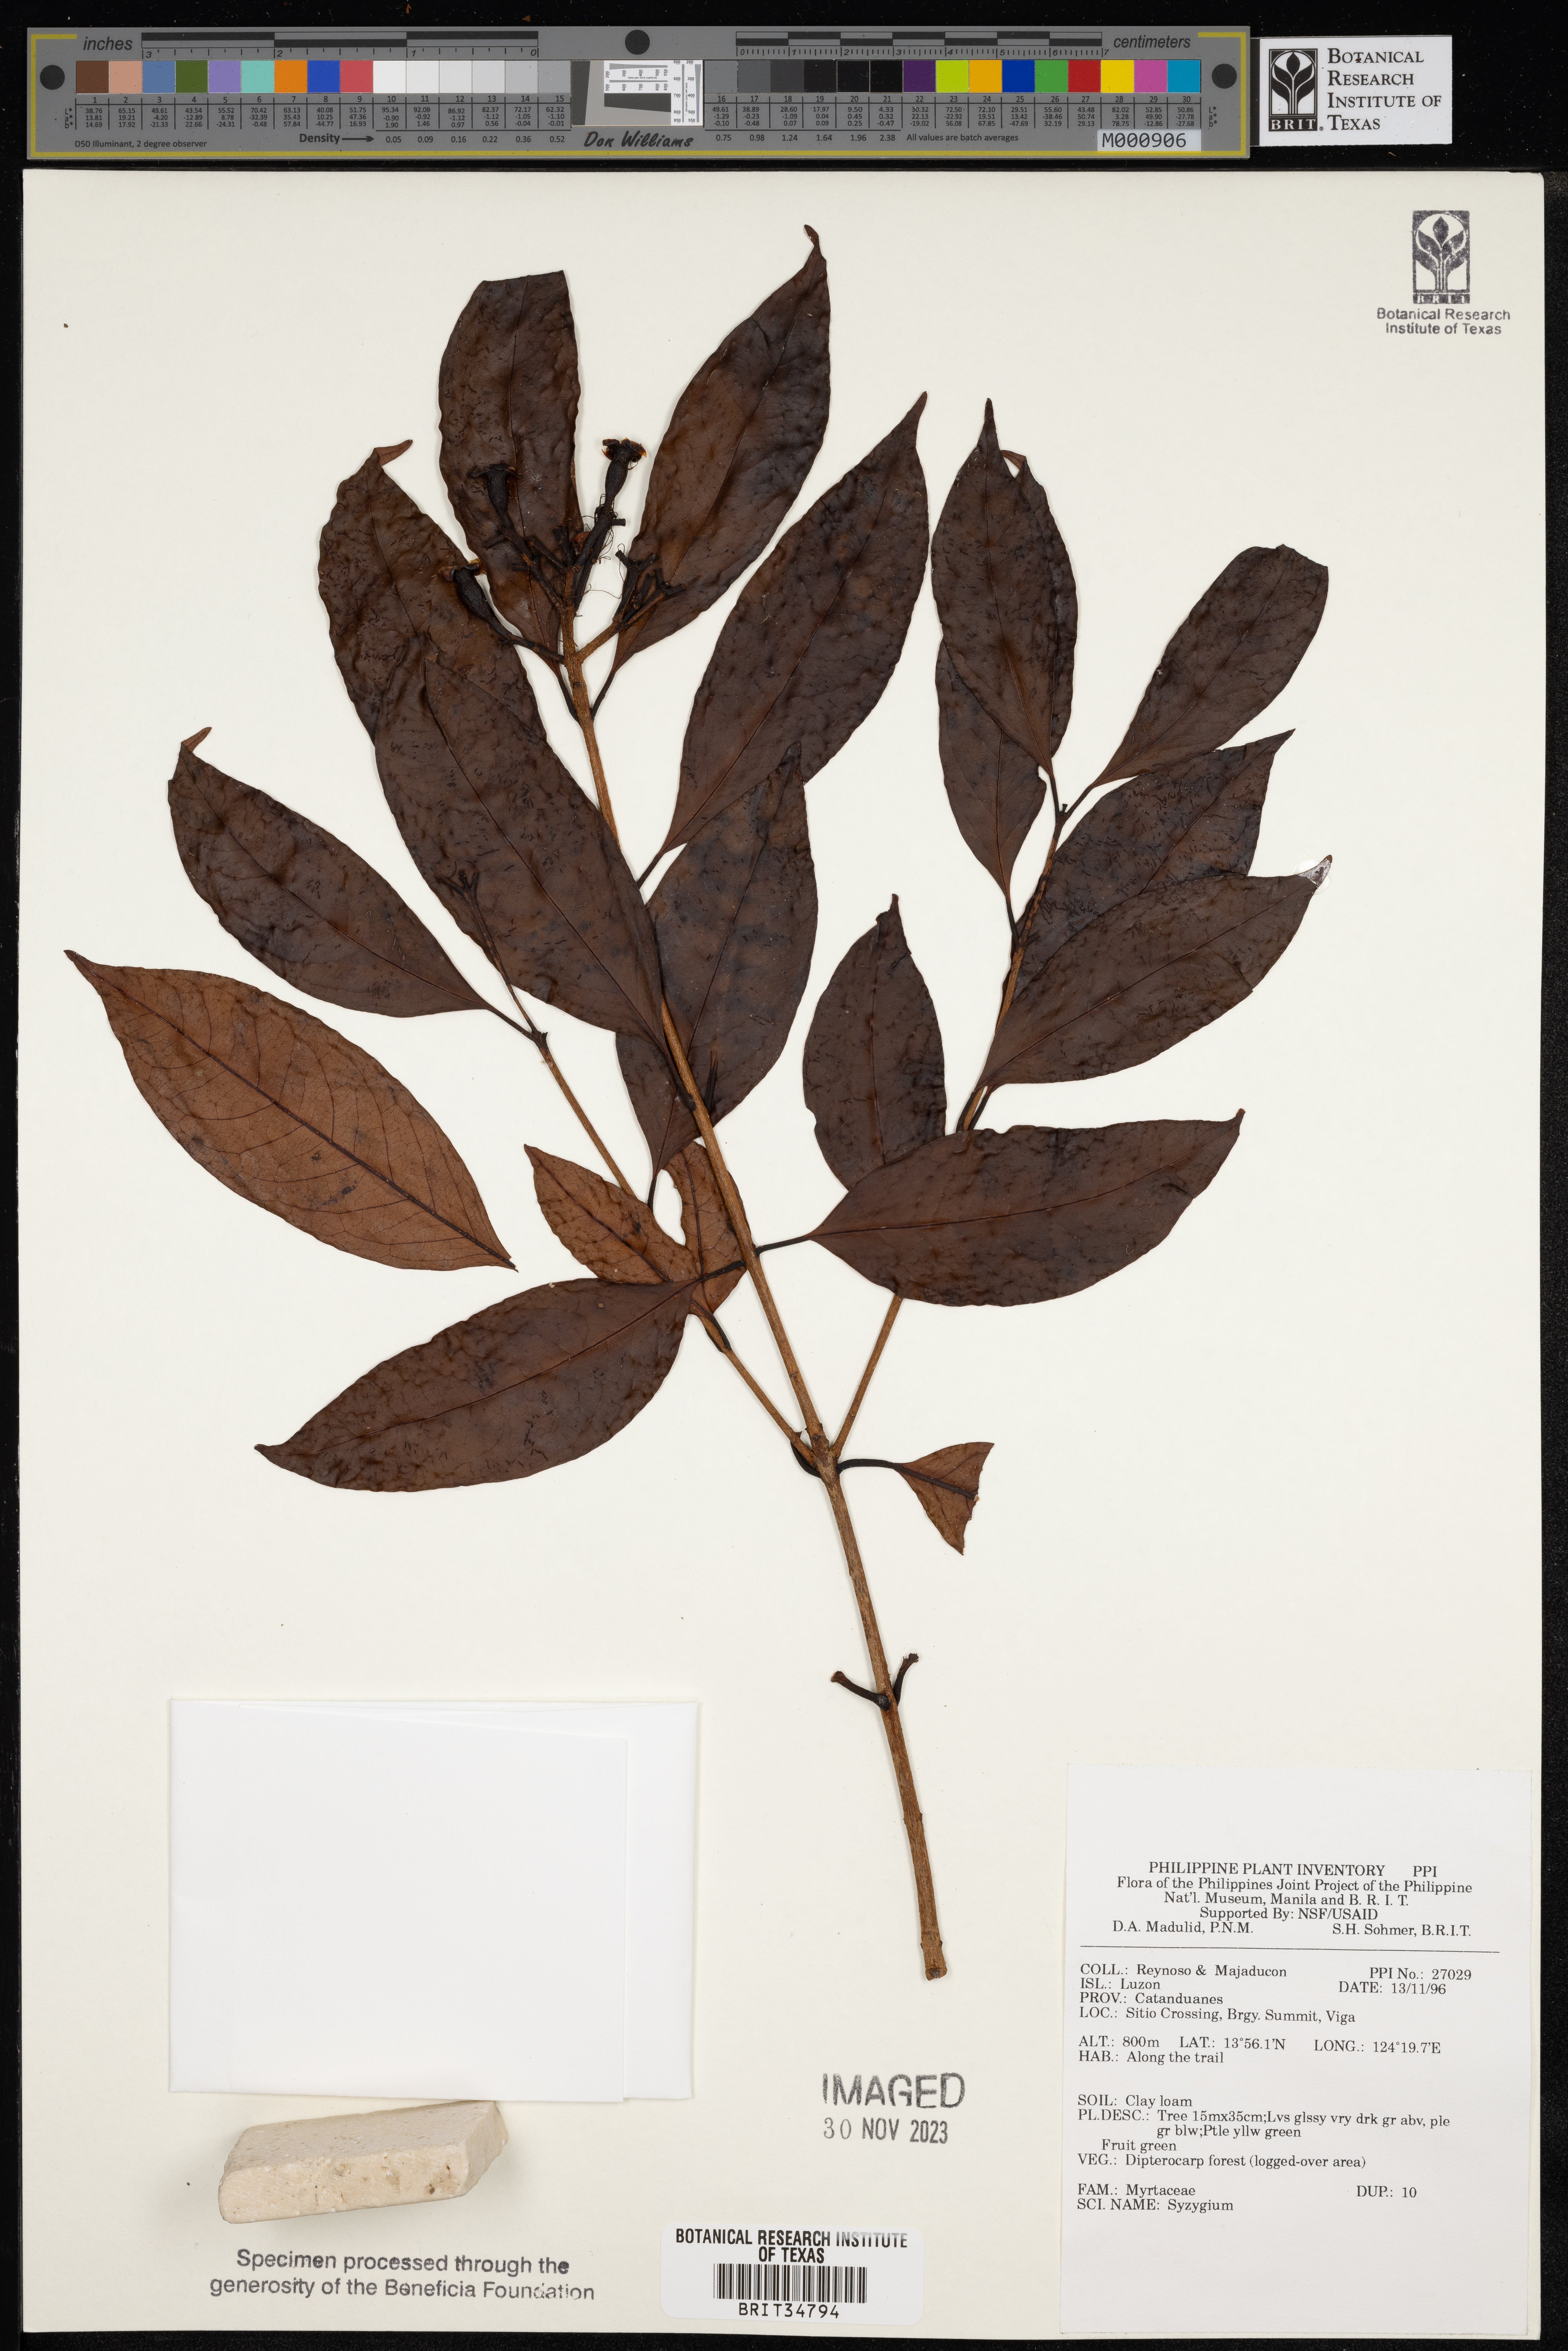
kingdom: Plantae
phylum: Tracheophyta
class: Magnoliopsida
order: Myrtales
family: Myrtaceae
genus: Syzygium
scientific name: Syzygium
